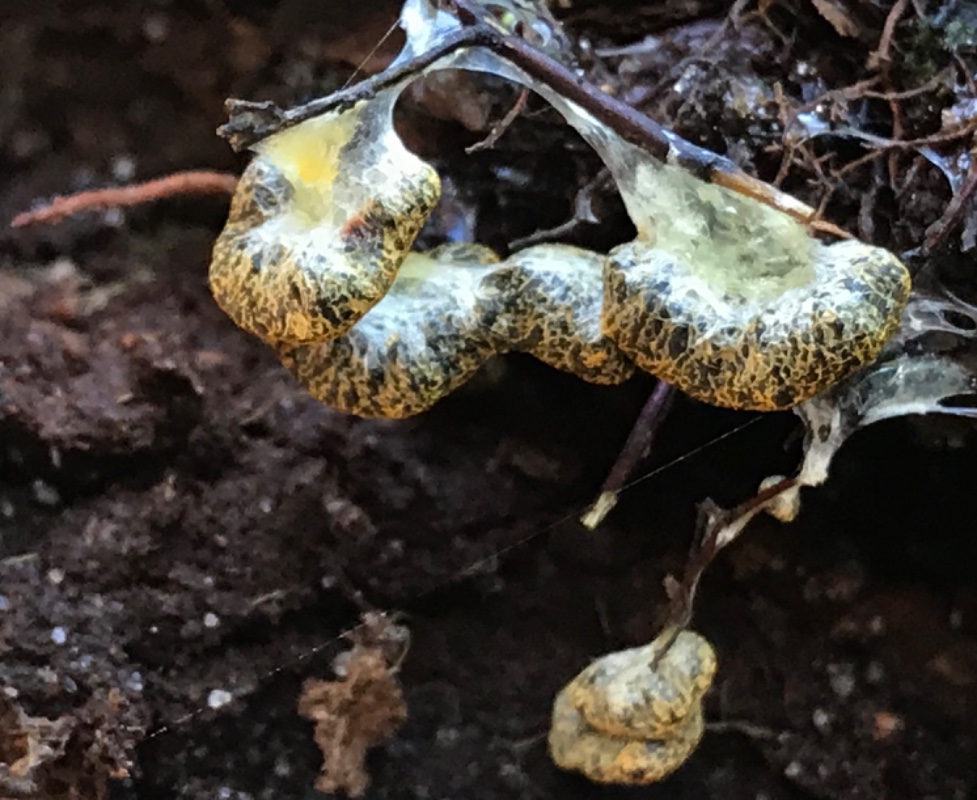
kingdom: Protozoa
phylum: Mycetozoa
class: Myxomycetes
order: Physarales
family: Physaraceae
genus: Fuligo
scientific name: Fuligo muscorum
